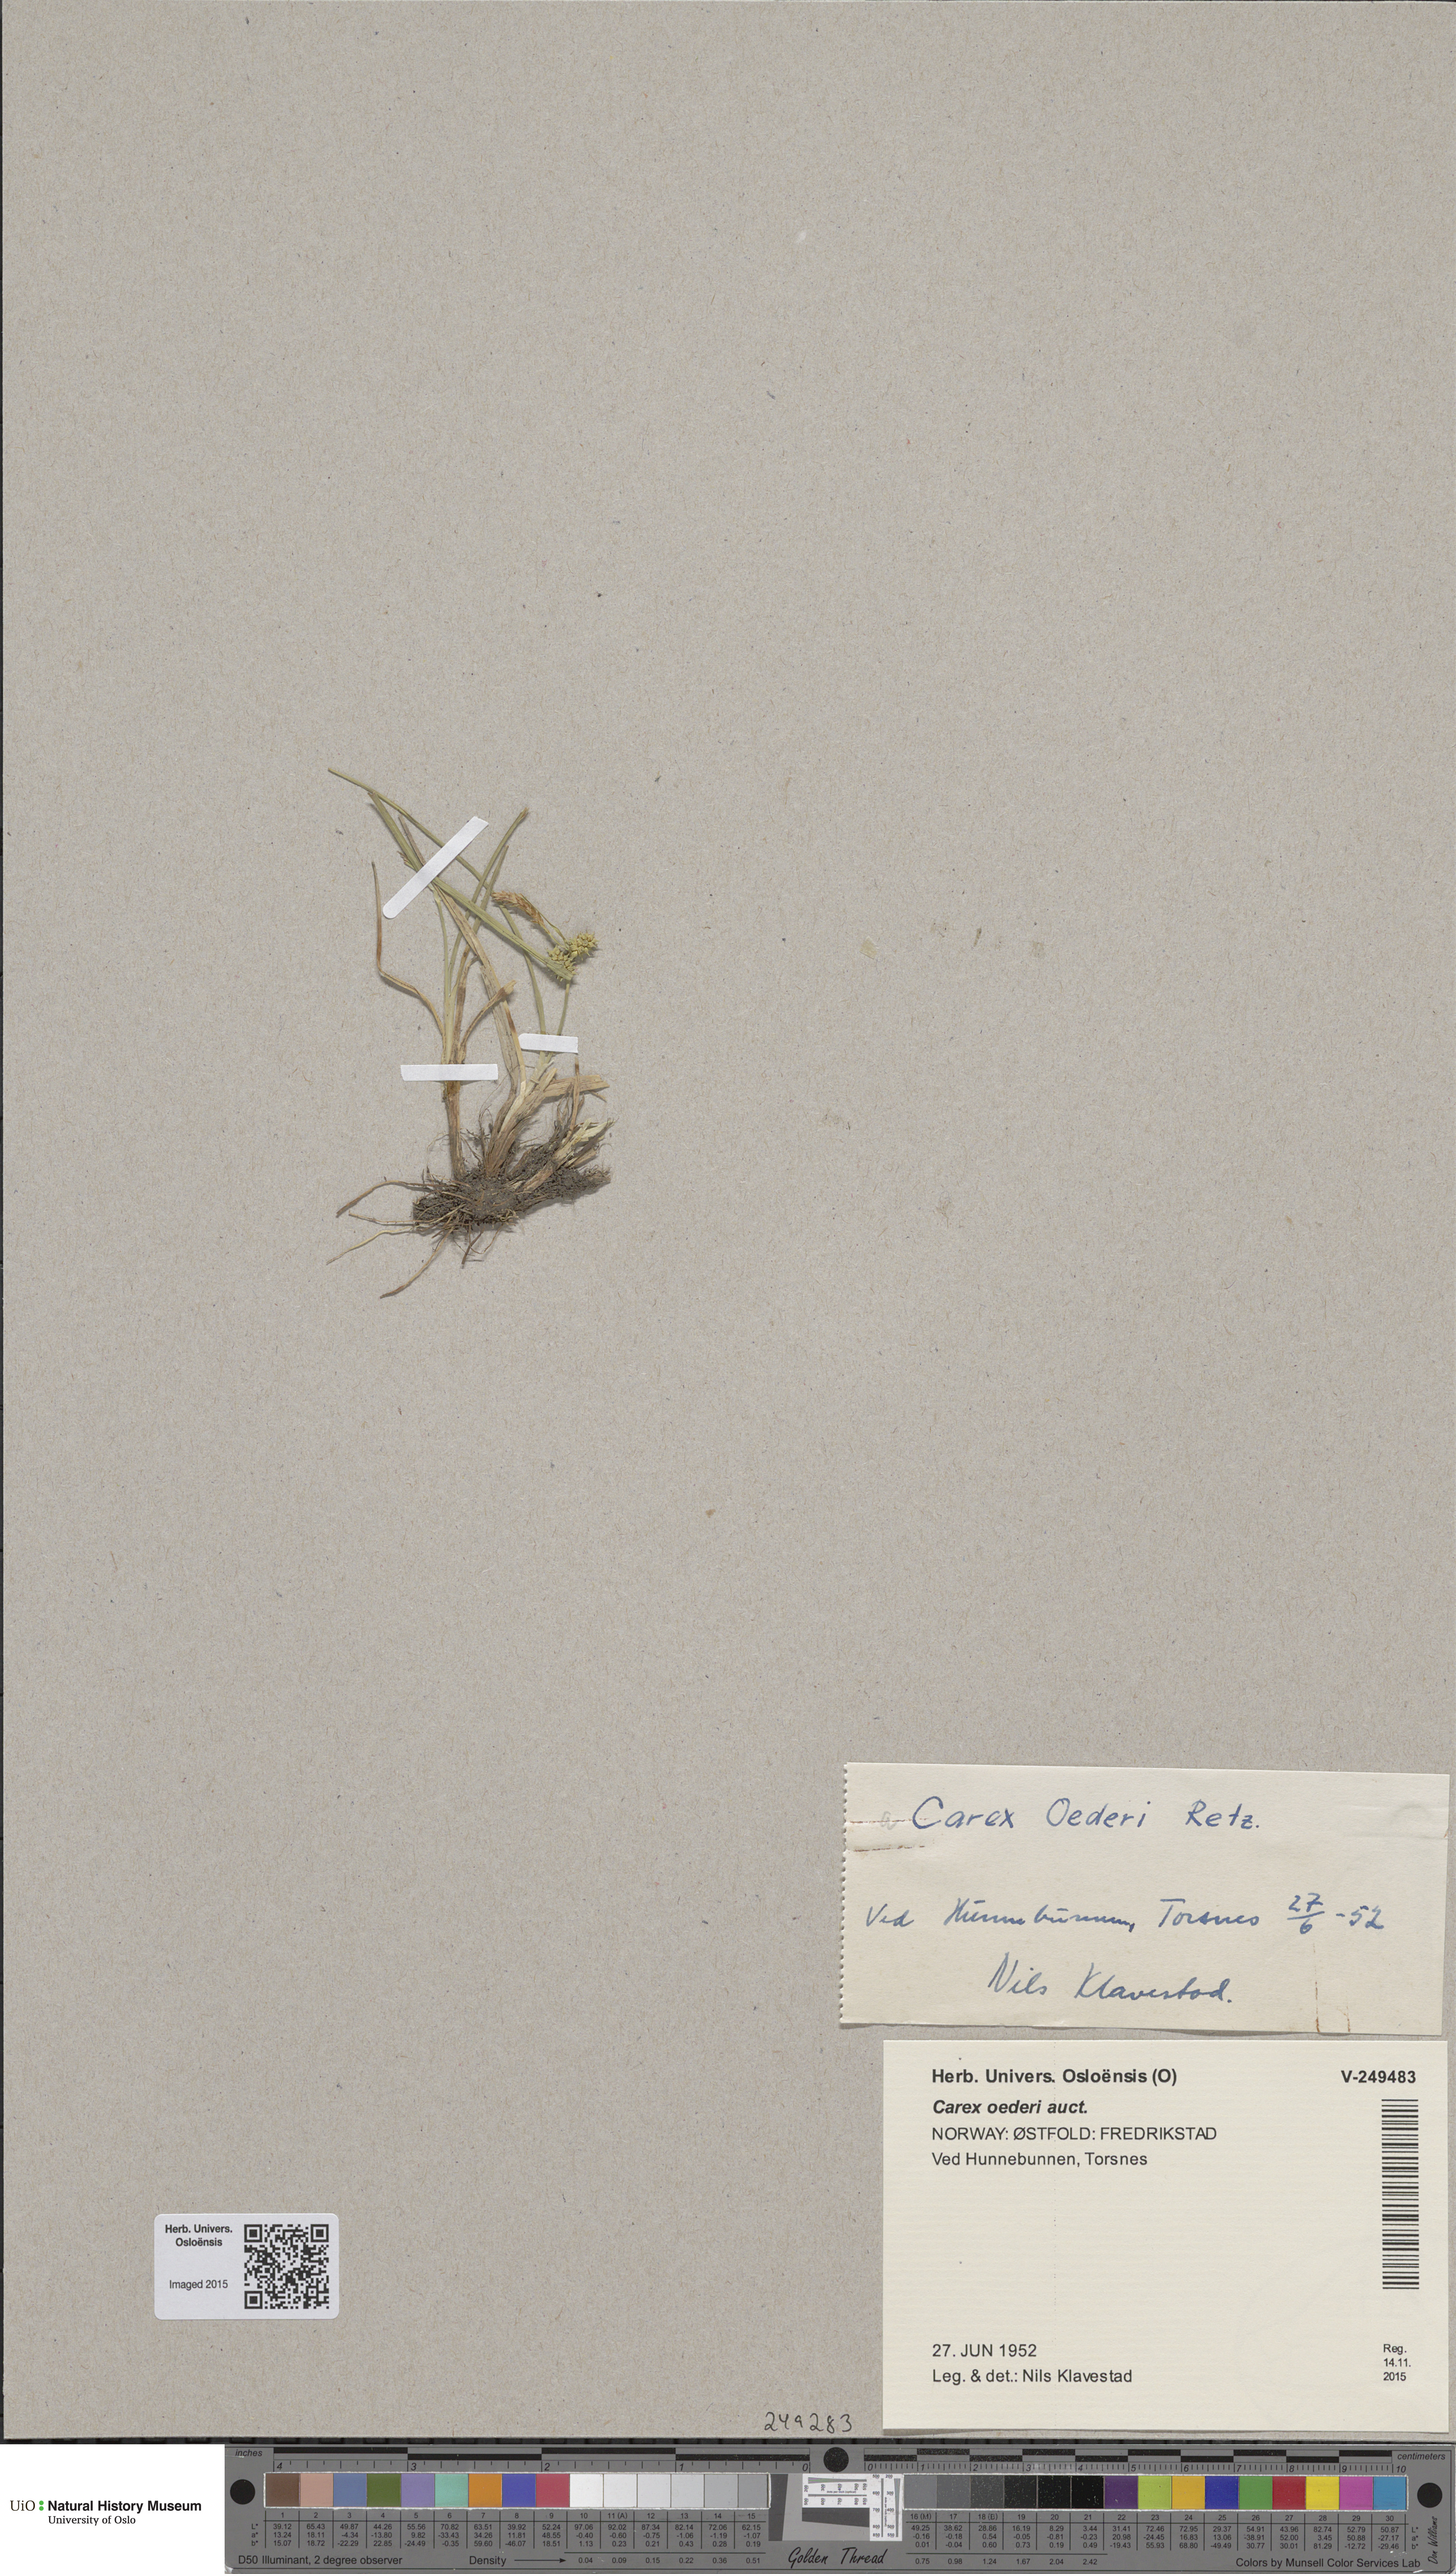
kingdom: Plantae
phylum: Tracheophyta
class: Liliopsida
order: Poales
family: Cyperaceae
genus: Carex
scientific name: Carex oederi
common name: Common & small-fruited yellow-sedge
